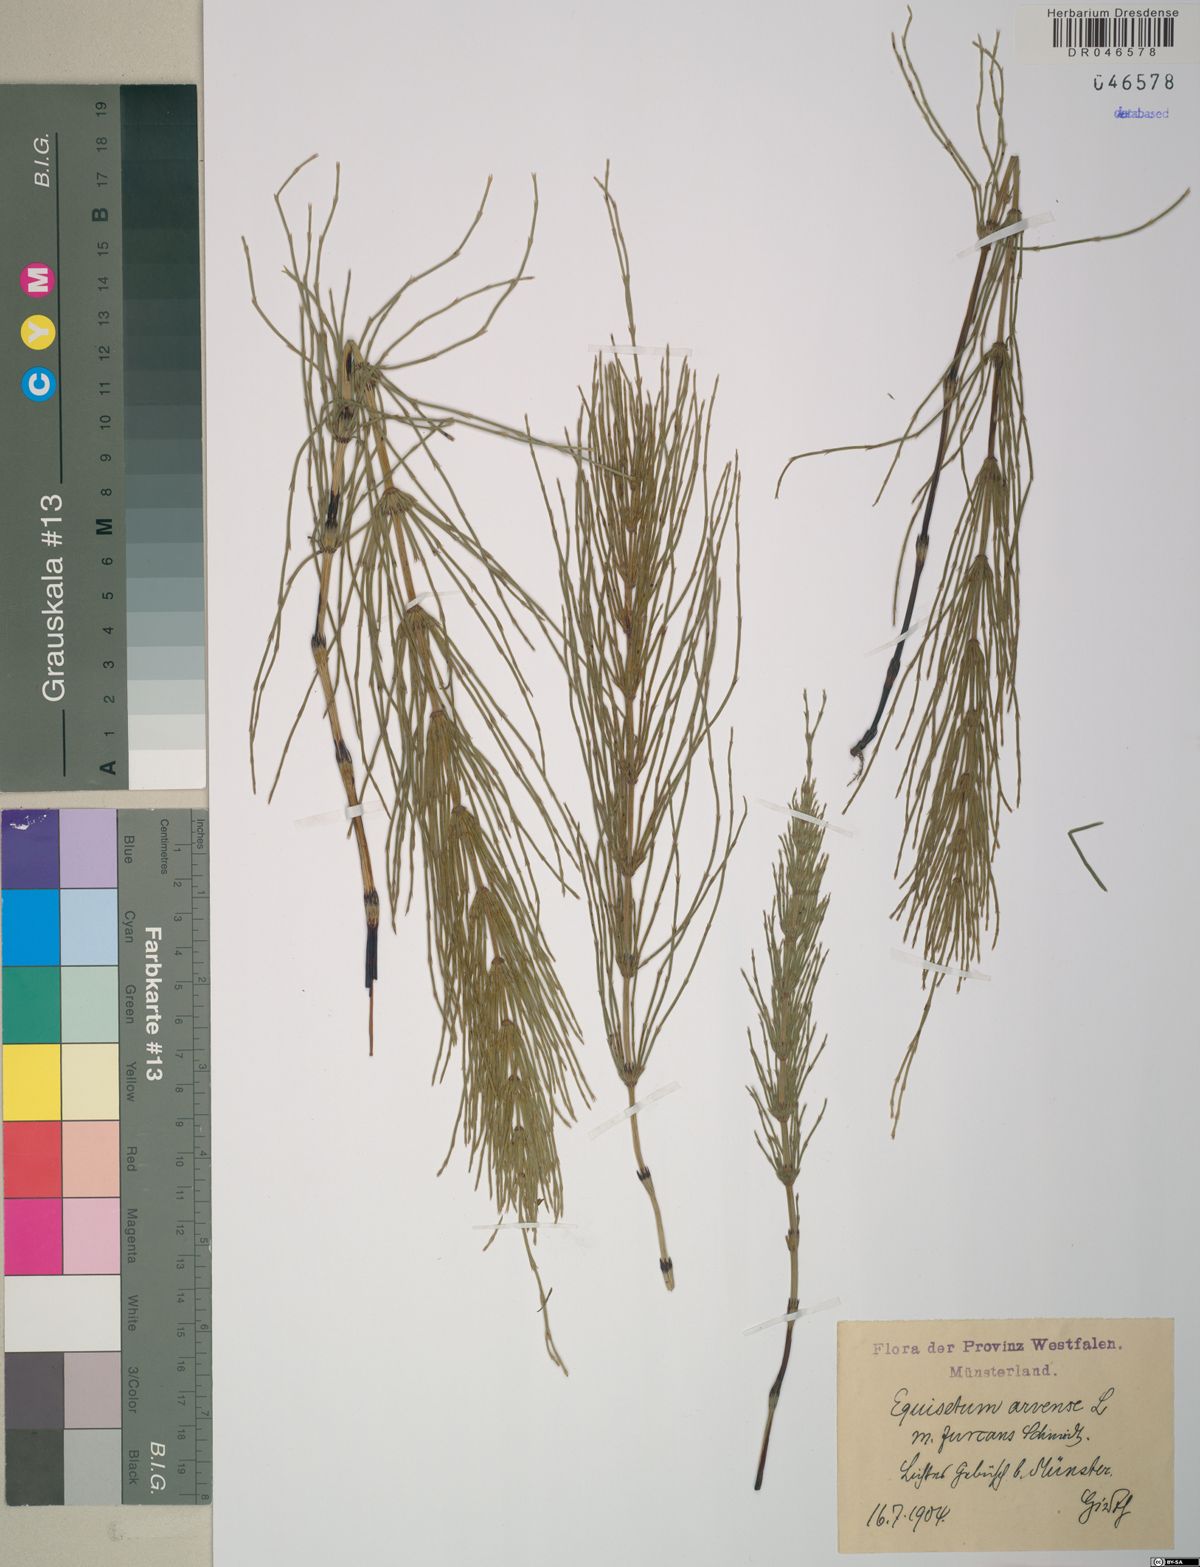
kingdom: Plantae
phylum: Tracheophyta
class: Polypodiopsida
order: Equisetales
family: Equisetaceae
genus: Equisetum
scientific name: Equisetum arvense
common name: Field horsetail
